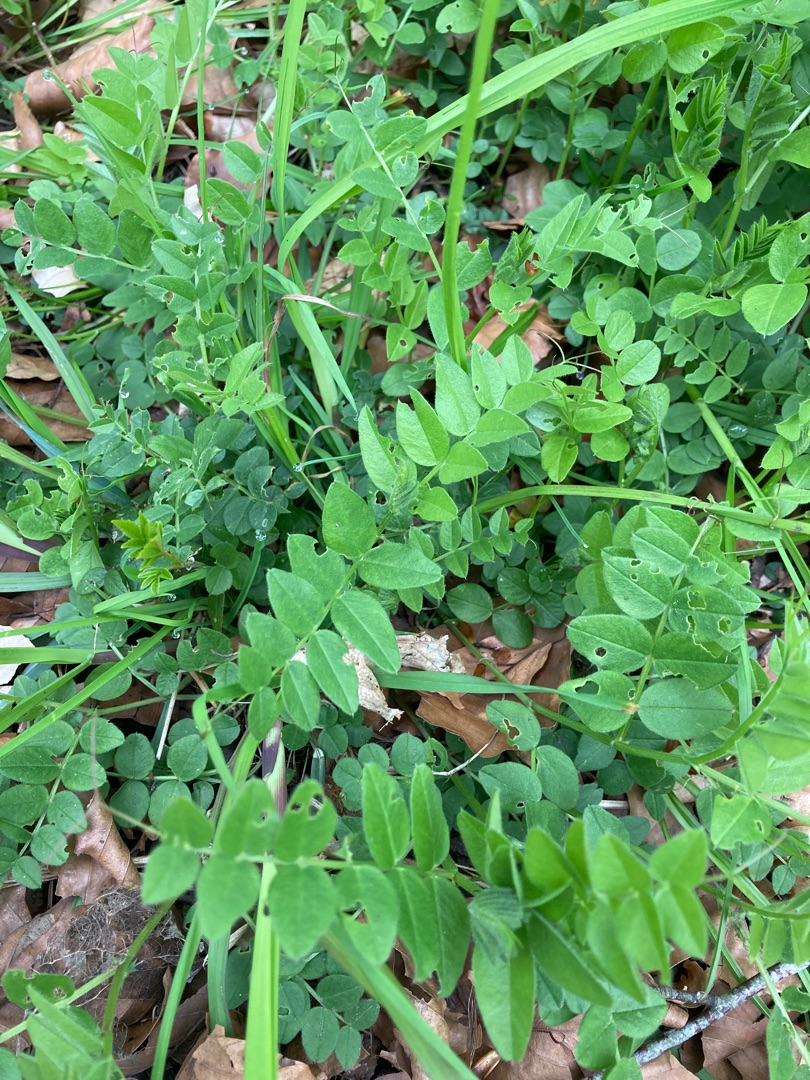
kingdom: Plantae
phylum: Tracheophyta
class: Magnoliopsida
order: Fabales
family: Fabaceae
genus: Vicia
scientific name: Vicia sepium
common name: Gærde-vikke
